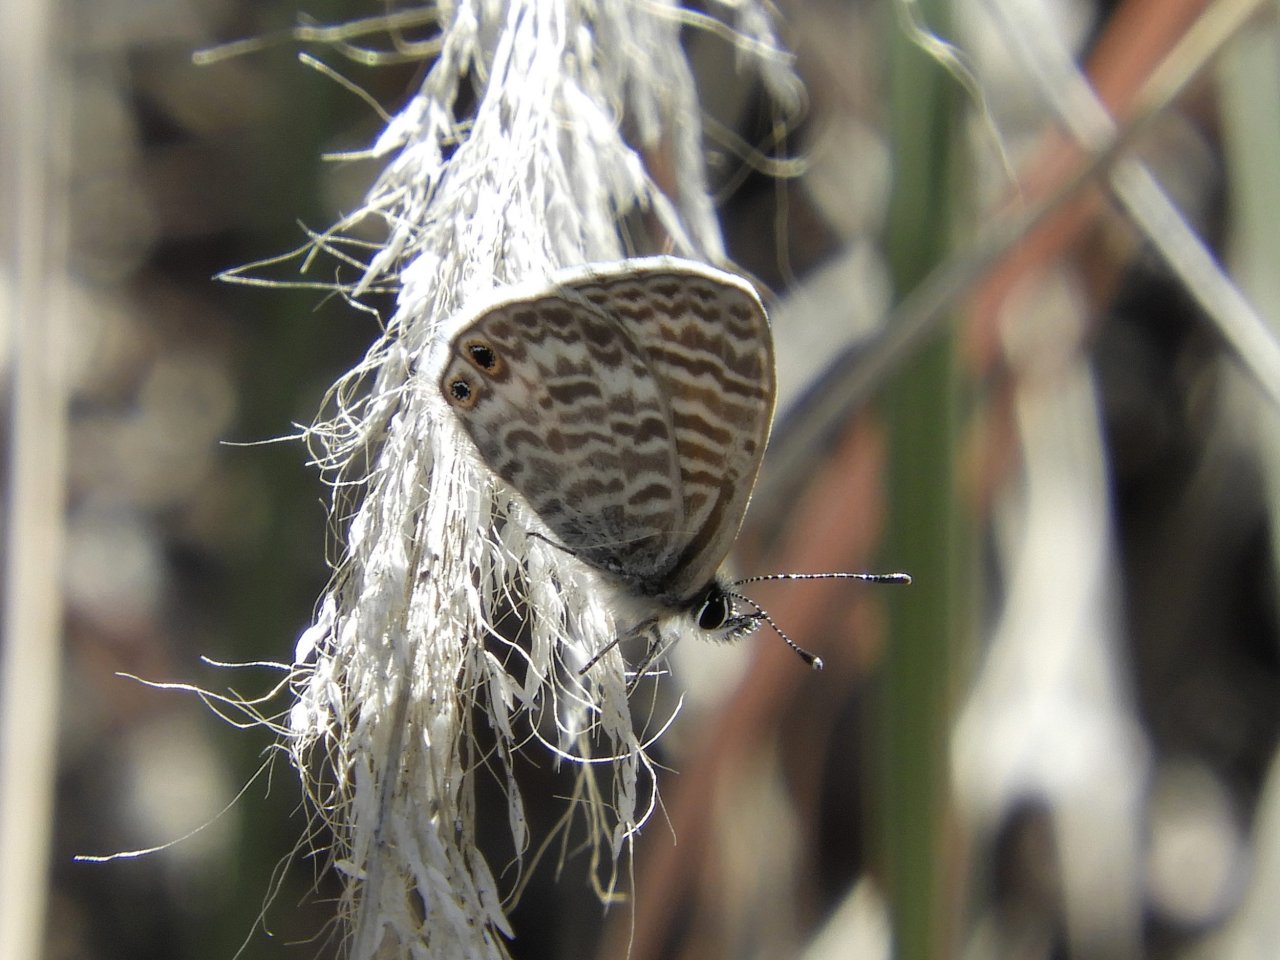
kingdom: Animalia
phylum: Arthropoda
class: Insecta
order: Lepidoptera
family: Lycaenidae
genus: Leptotes
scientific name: Leptotes marina
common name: Marine Blue
